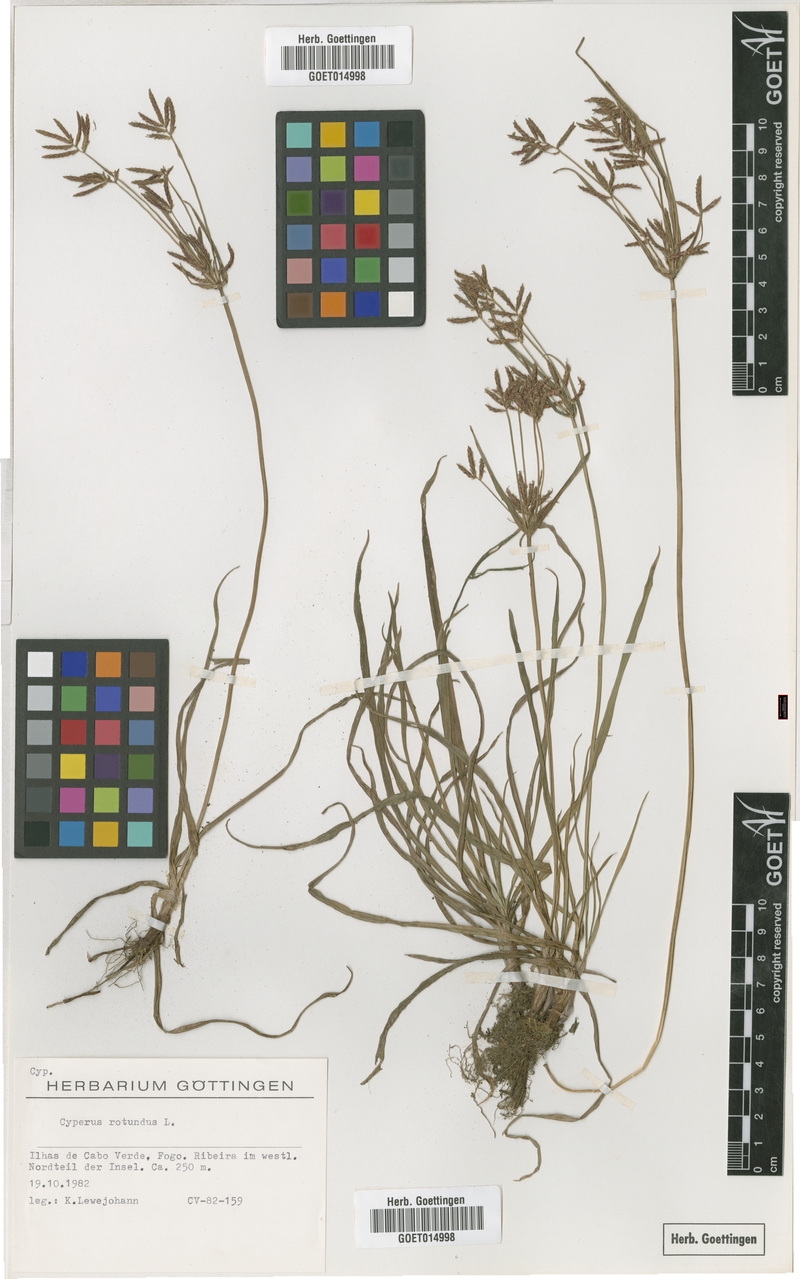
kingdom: Plantae
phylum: Tracheophyta
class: Liliopsida
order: Poales
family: Cyperaceae
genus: Cyperus
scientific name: Cyperus rotundus
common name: Nutgrass
